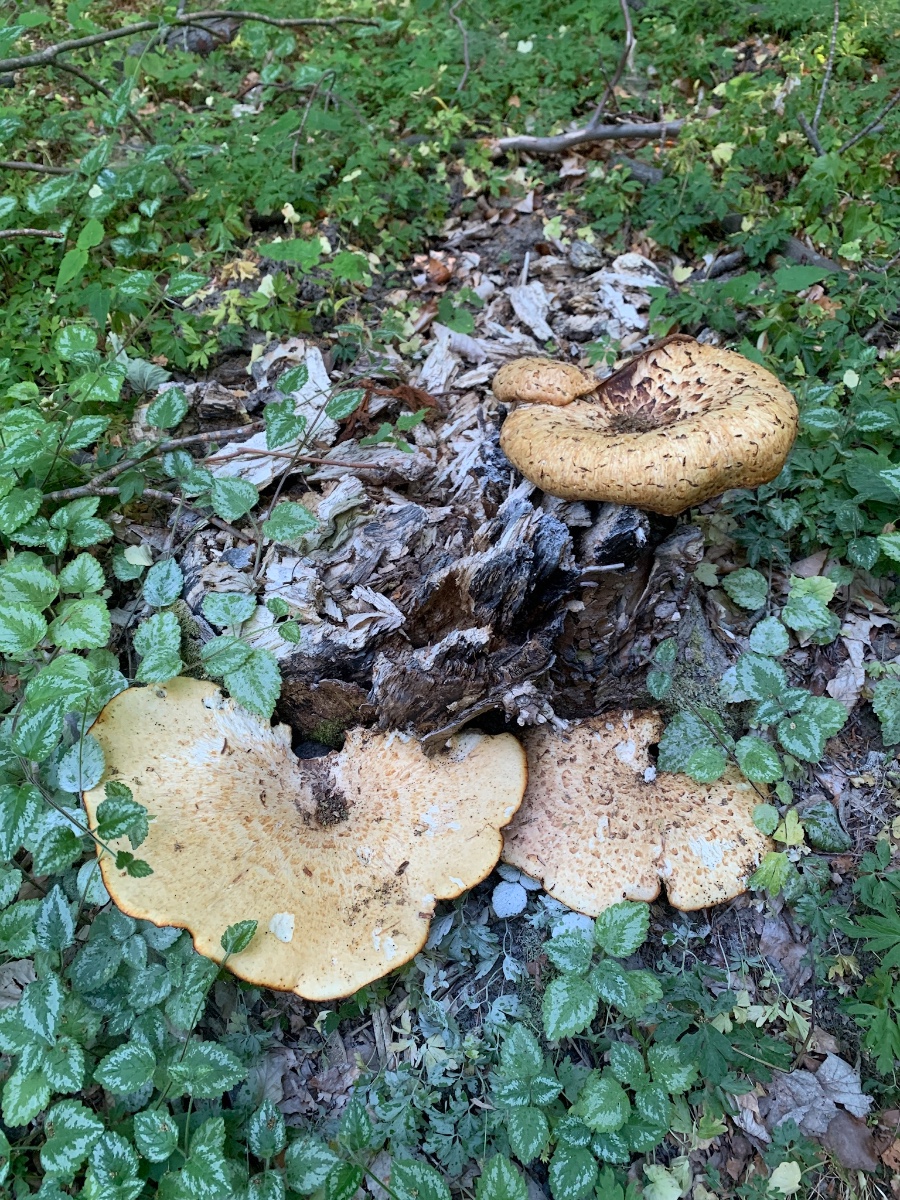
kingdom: Fungi
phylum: Basidiomycota
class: Agaricomycetes
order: Polyporales
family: Polyporaceae
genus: Cerioporus
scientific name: Cerioporus squamosus
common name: skællet stilkporesvamp
